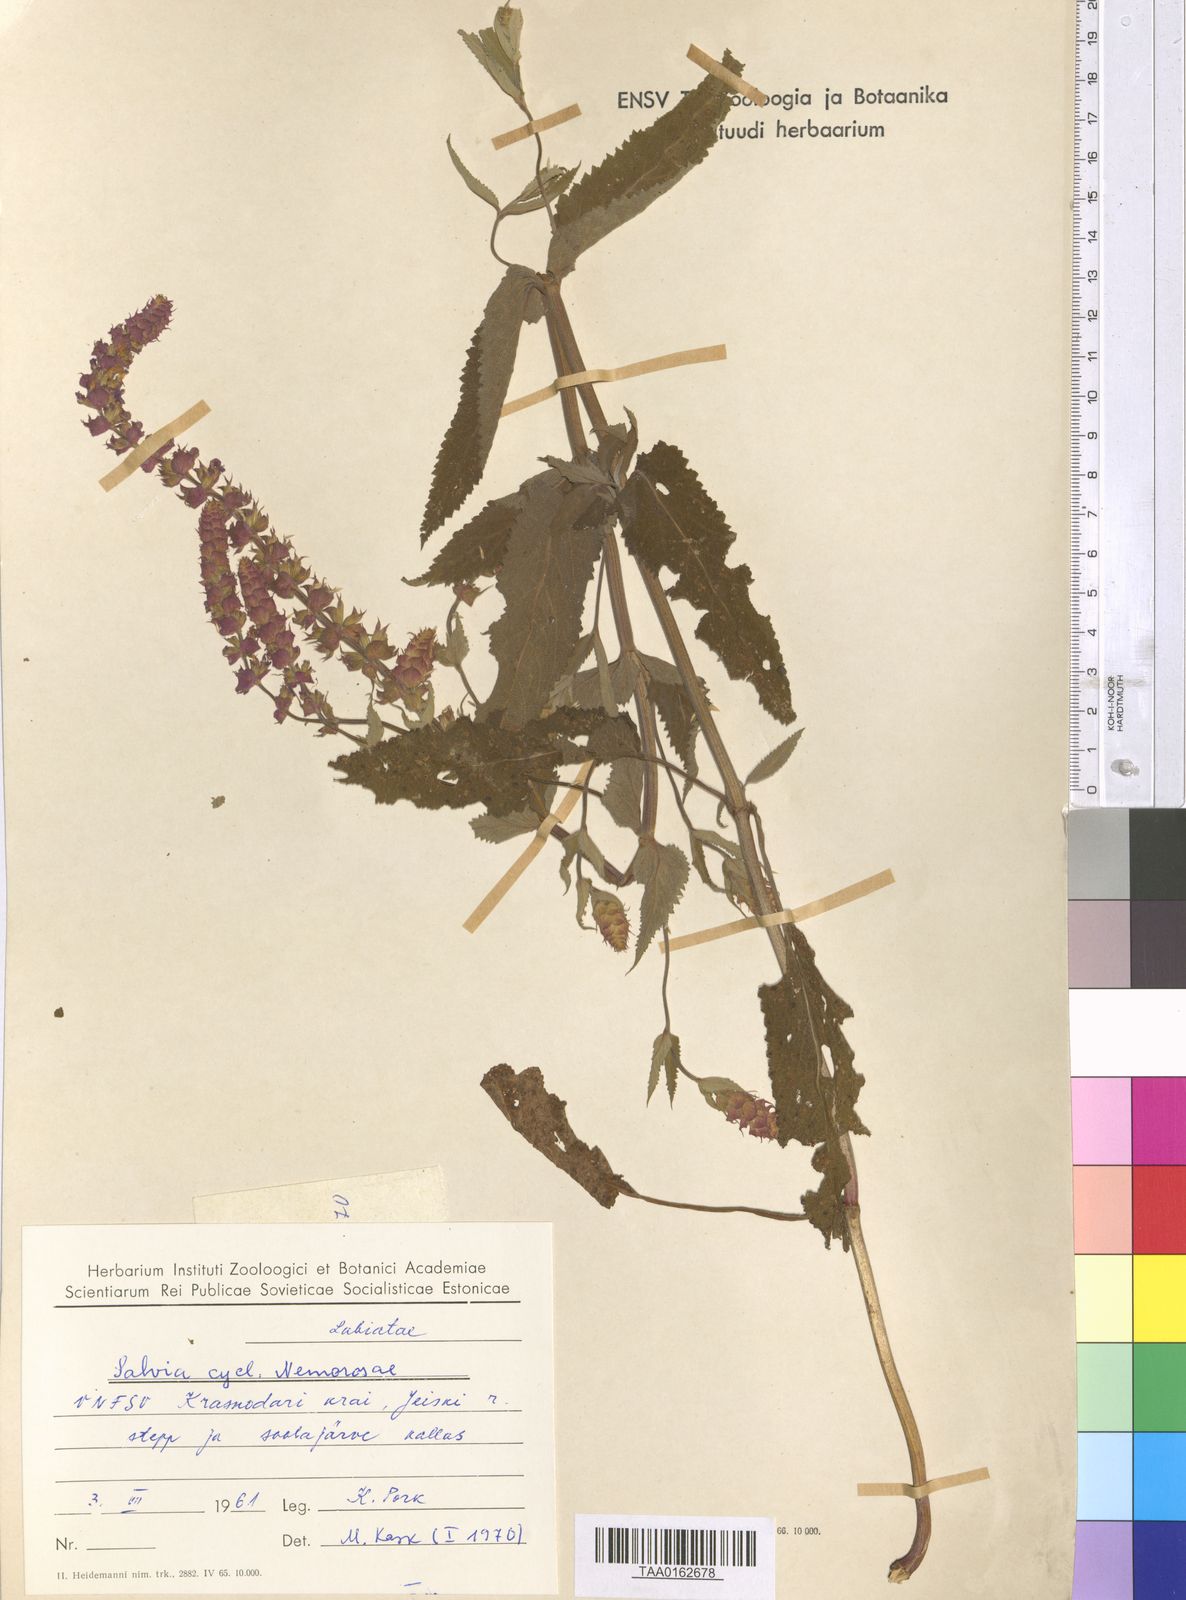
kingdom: Plantae
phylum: Tracheophyta
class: Magnoliopsida
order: Lamiales
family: Lamiaceae
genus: Salvia
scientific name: Salvia nemorosa
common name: Balkan clary
